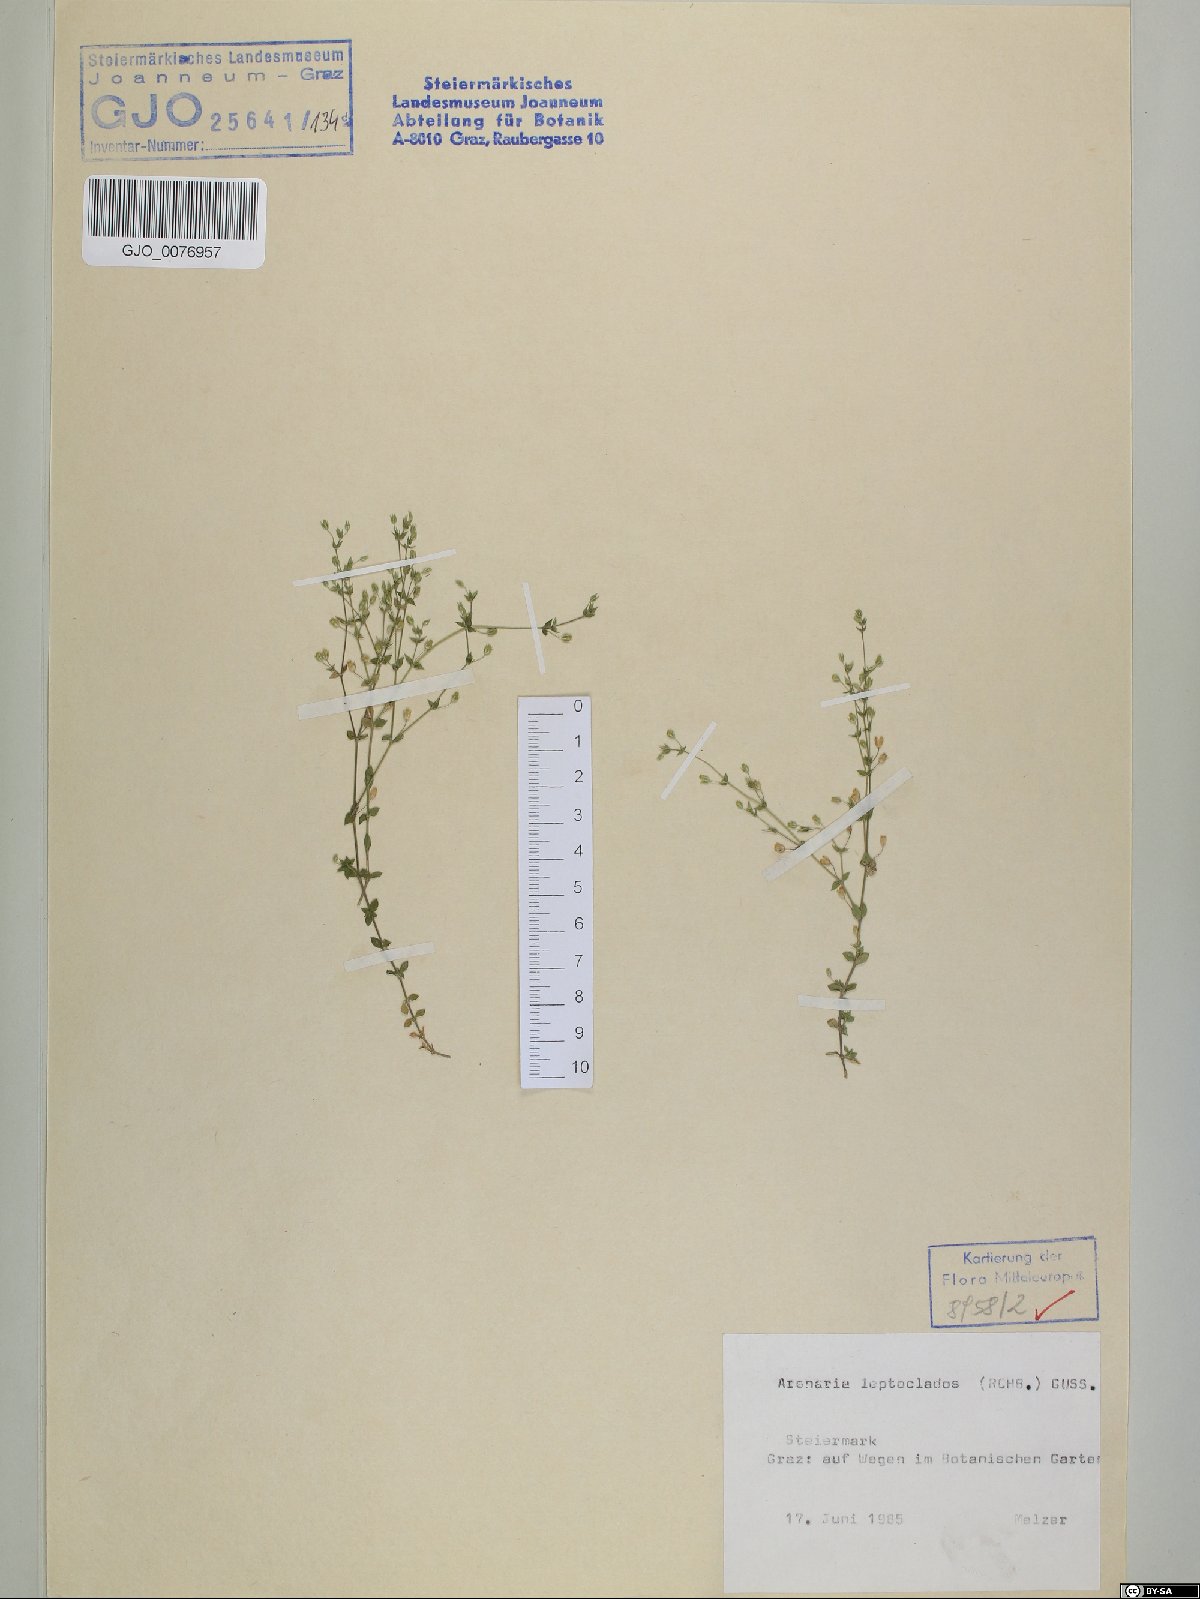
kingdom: Plantae
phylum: Tracheophyta
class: Magnoliopsida
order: Caryophyllales
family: Caryophyllaceae
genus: Arenaria
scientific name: Arenaria leptoclados
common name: Thyme-leaved sandwort
